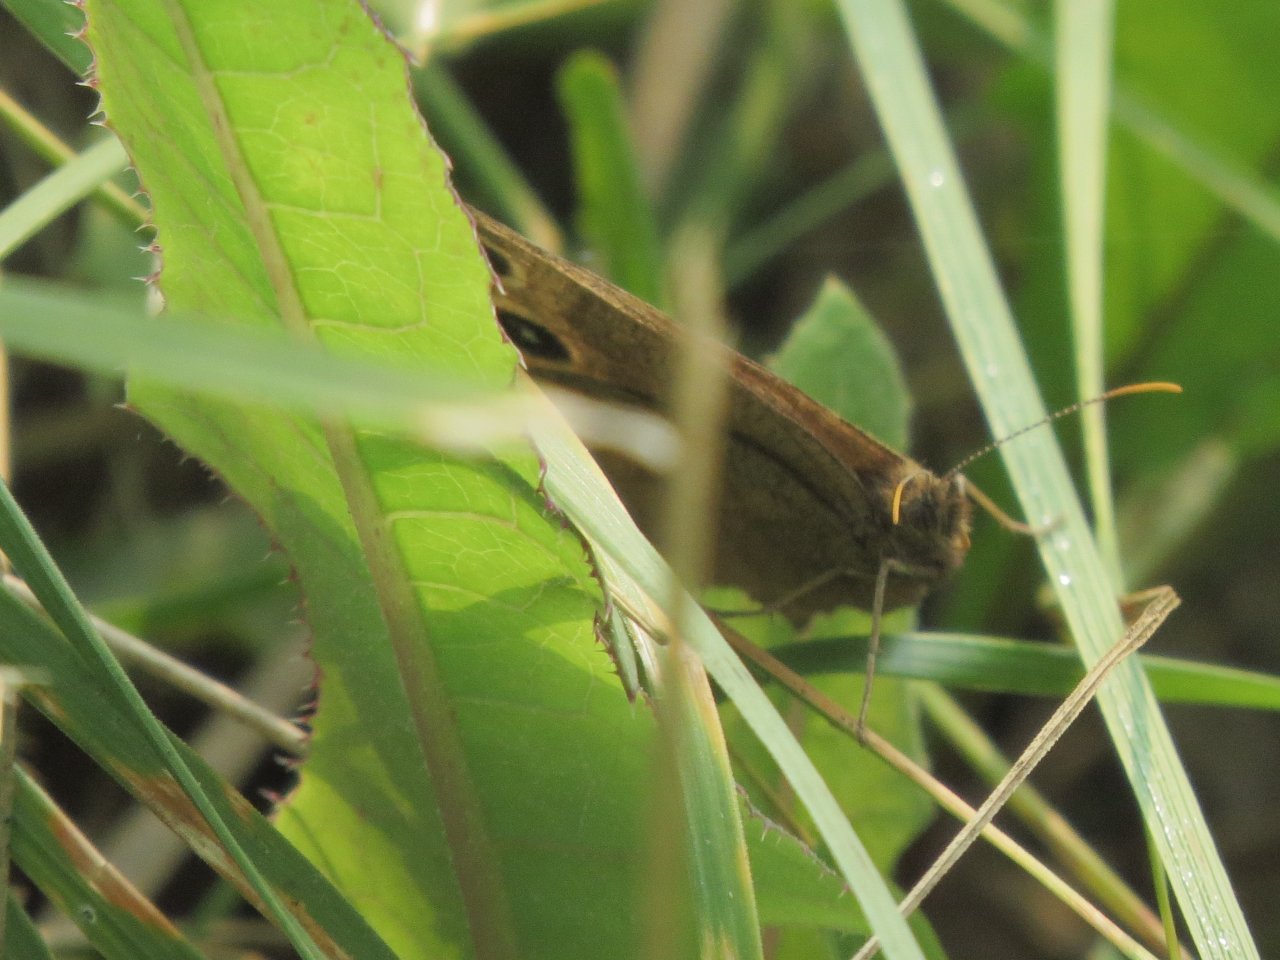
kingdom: Animalia
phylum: Arthropoda
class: Insecta
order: Lepidoptera
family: Nymphalidae
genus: Cercyonis
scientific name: Cercyonis pegala
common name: Common Wood-Nymph
